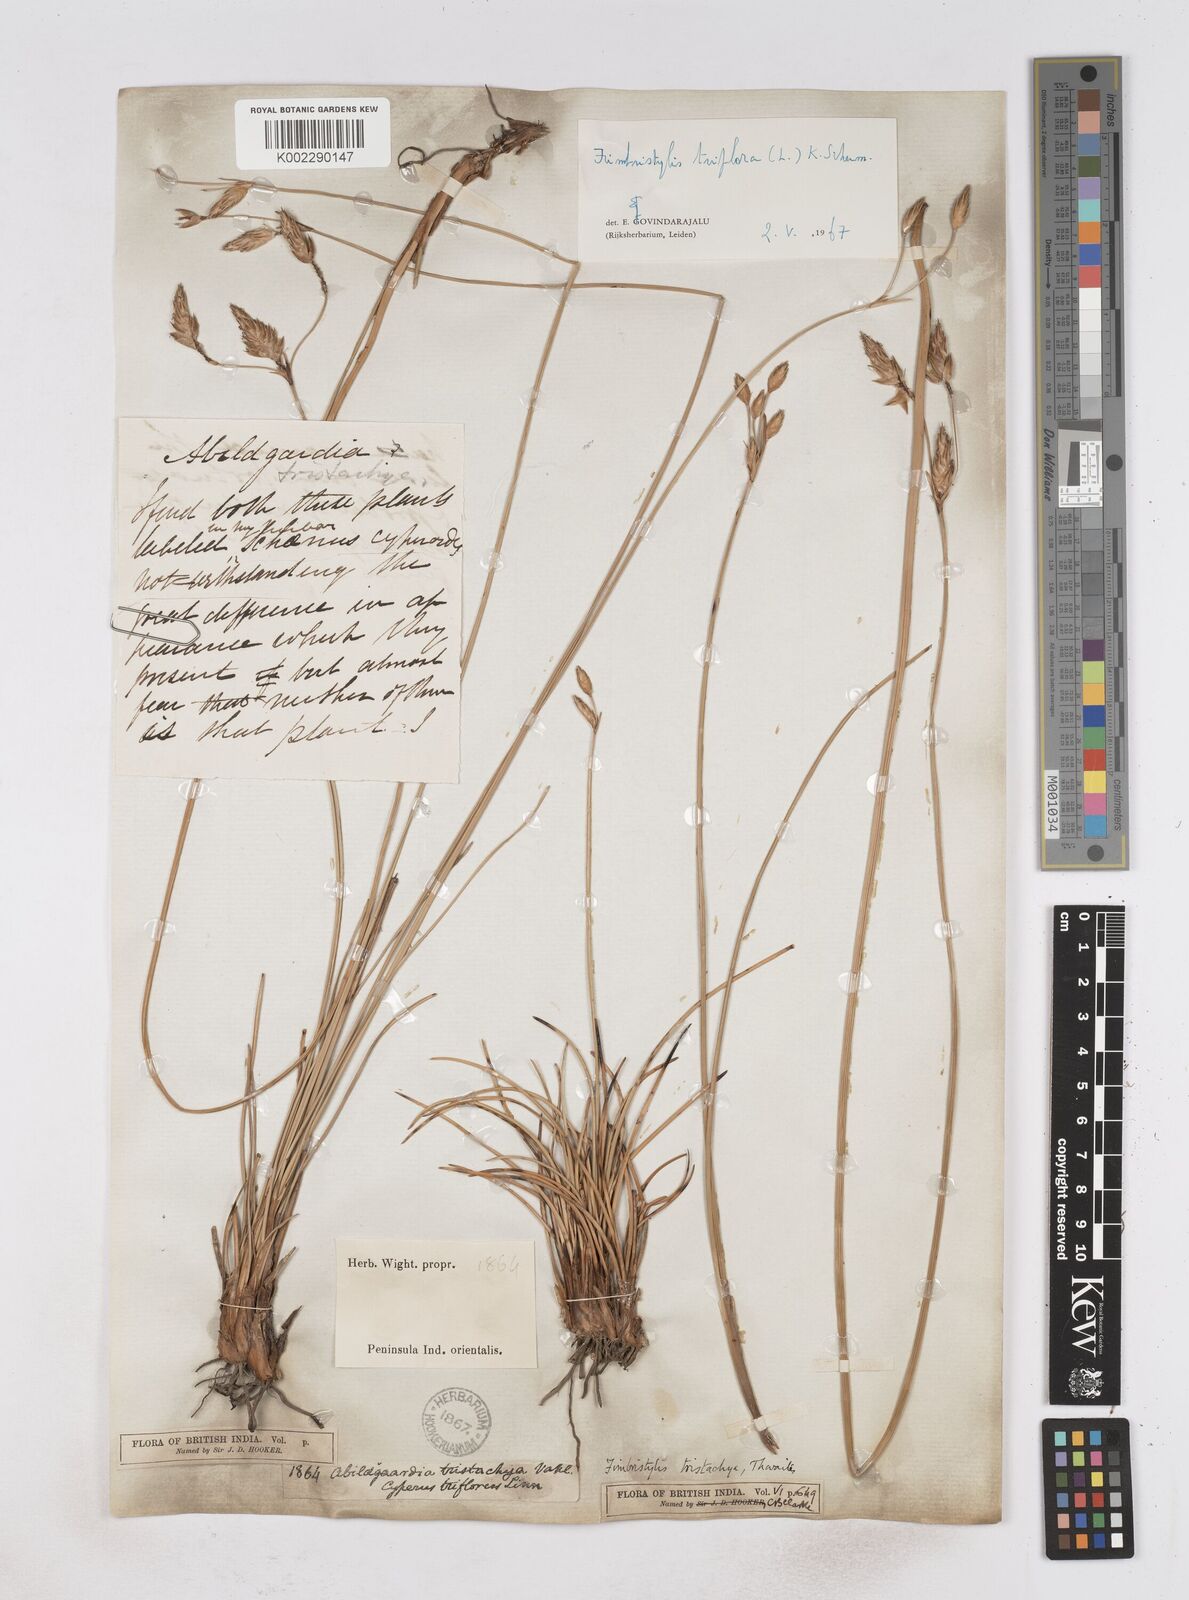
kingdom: Plantae
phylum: Tracheophyta
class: Liliopsida
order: Poales
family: Cyperaceae
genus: Abildgaardia
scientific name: Abildgaardia triflora
